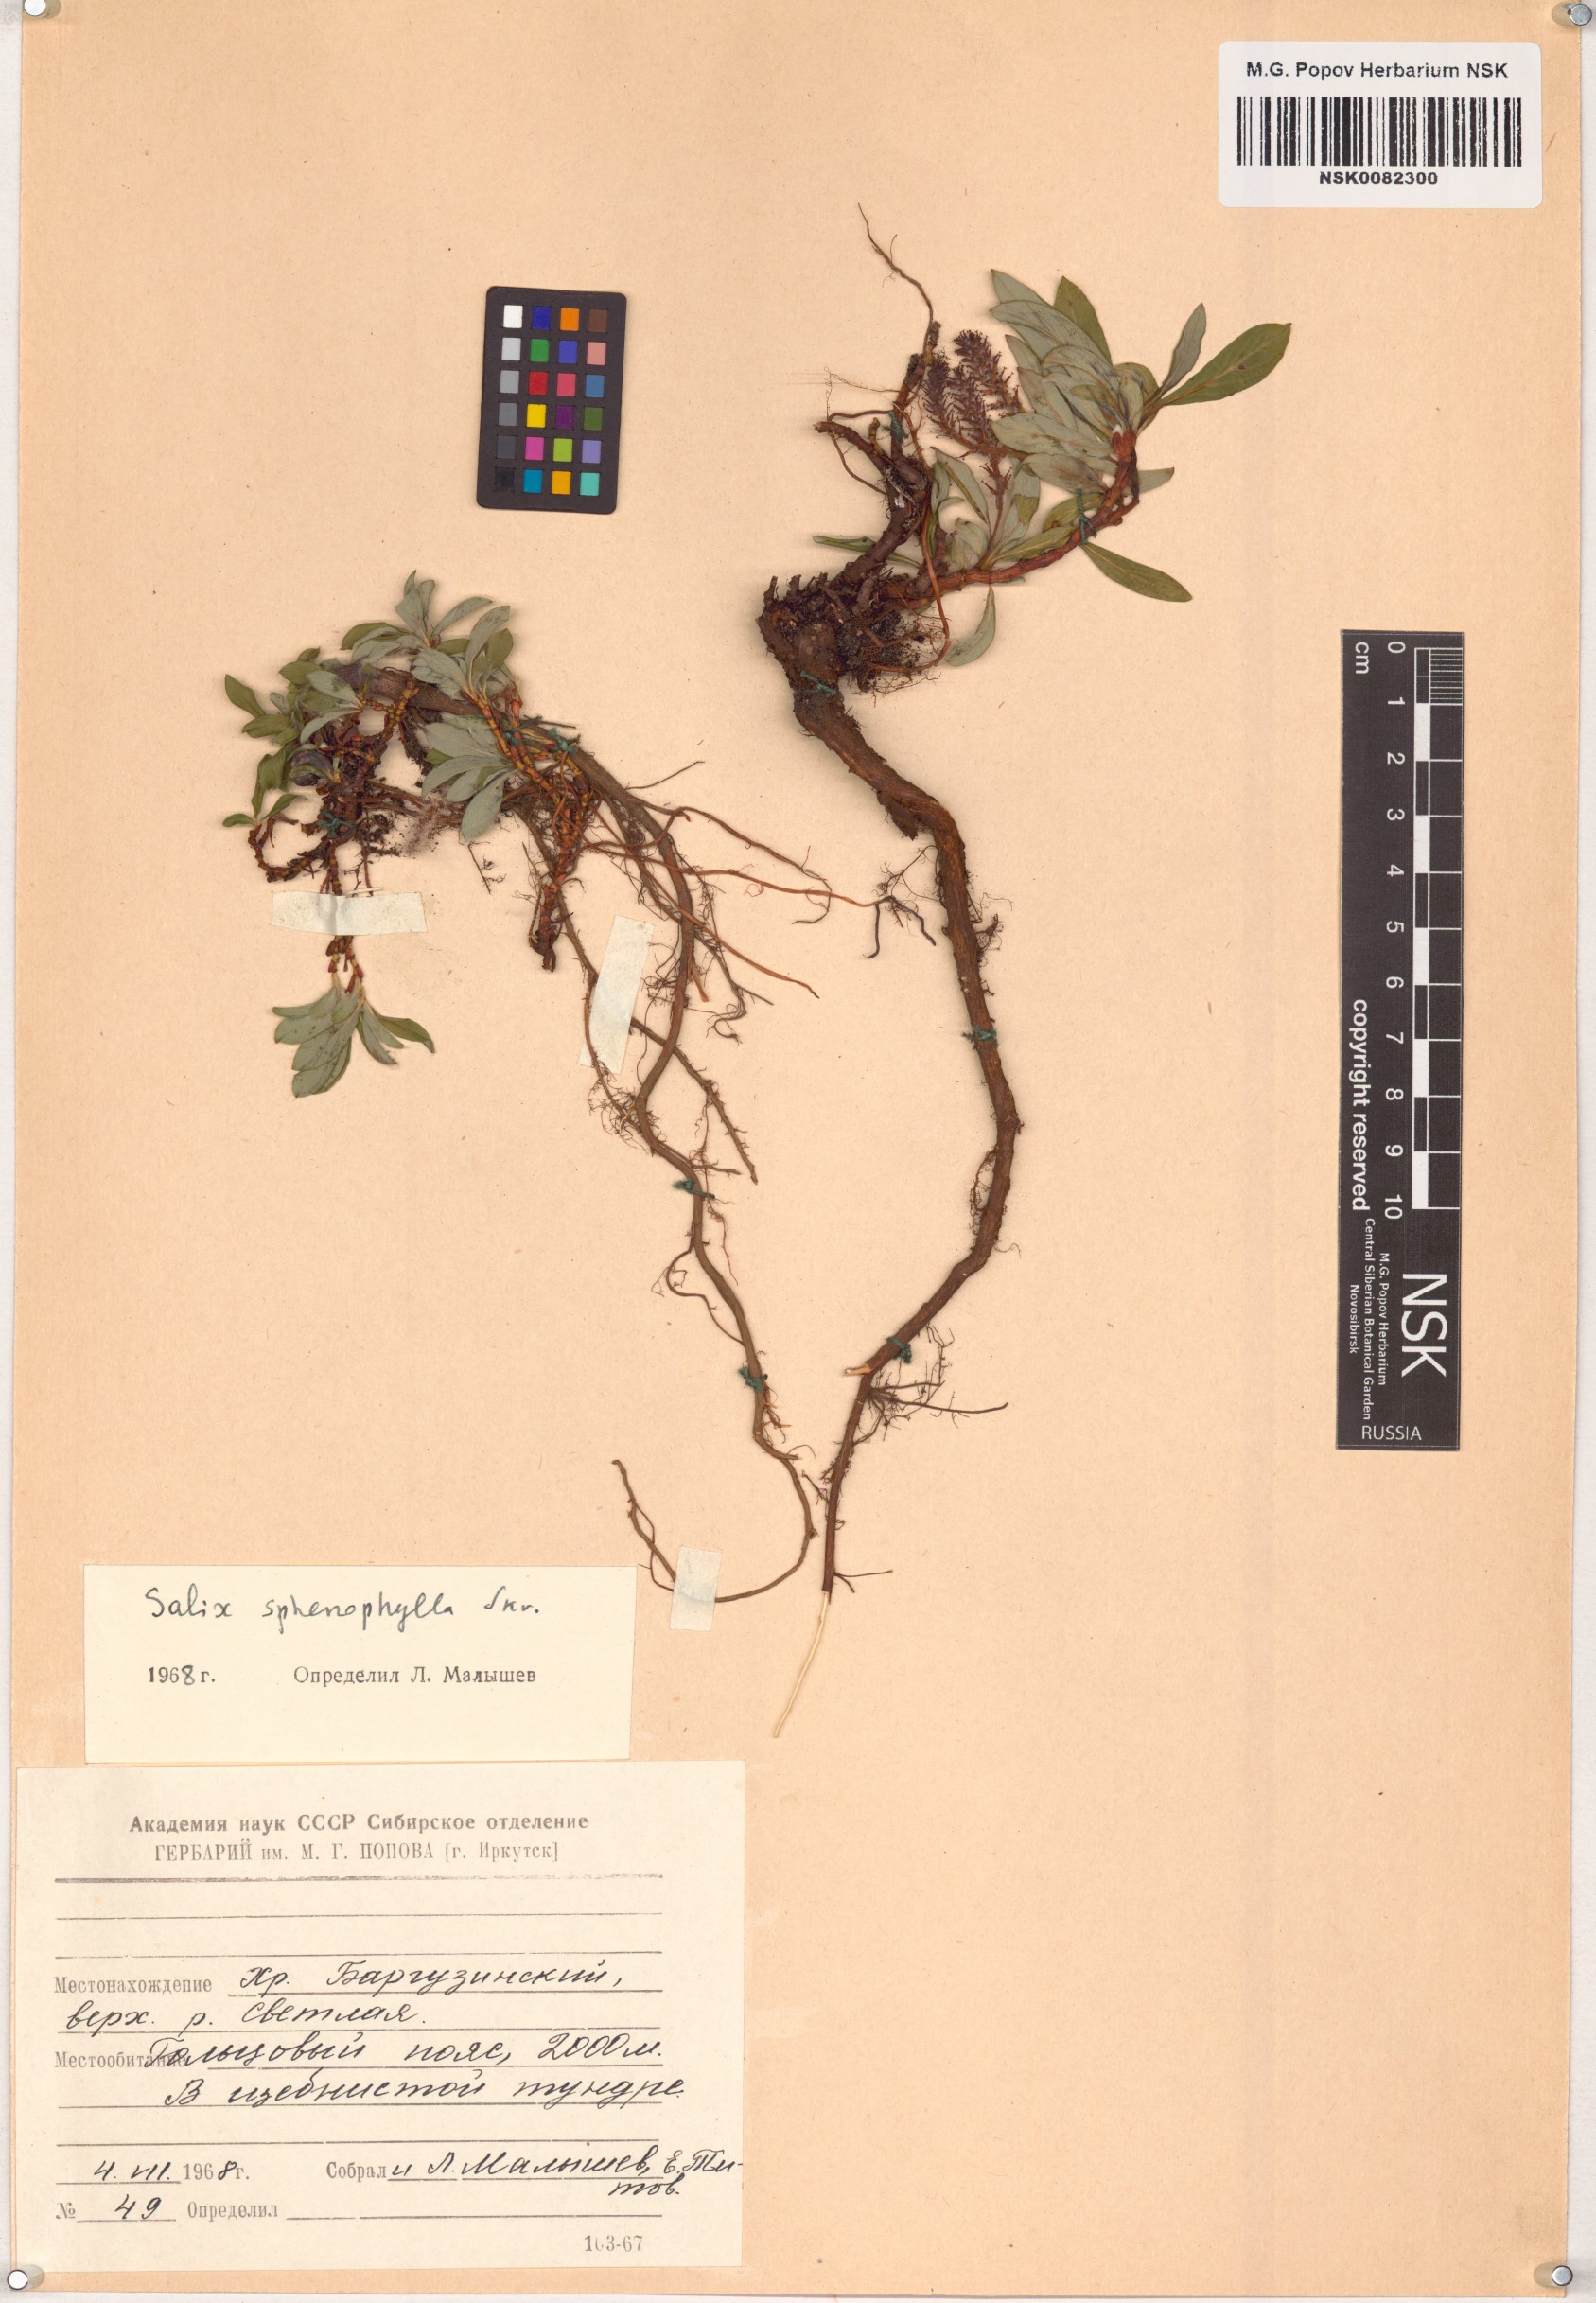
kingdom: Plantae
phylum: Tracheophyta
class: Magnoliopsida
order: Malpighiales
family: Salicaceae
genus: Salix
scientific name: Salix sphenophylla
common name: Wedge-leaved willow
